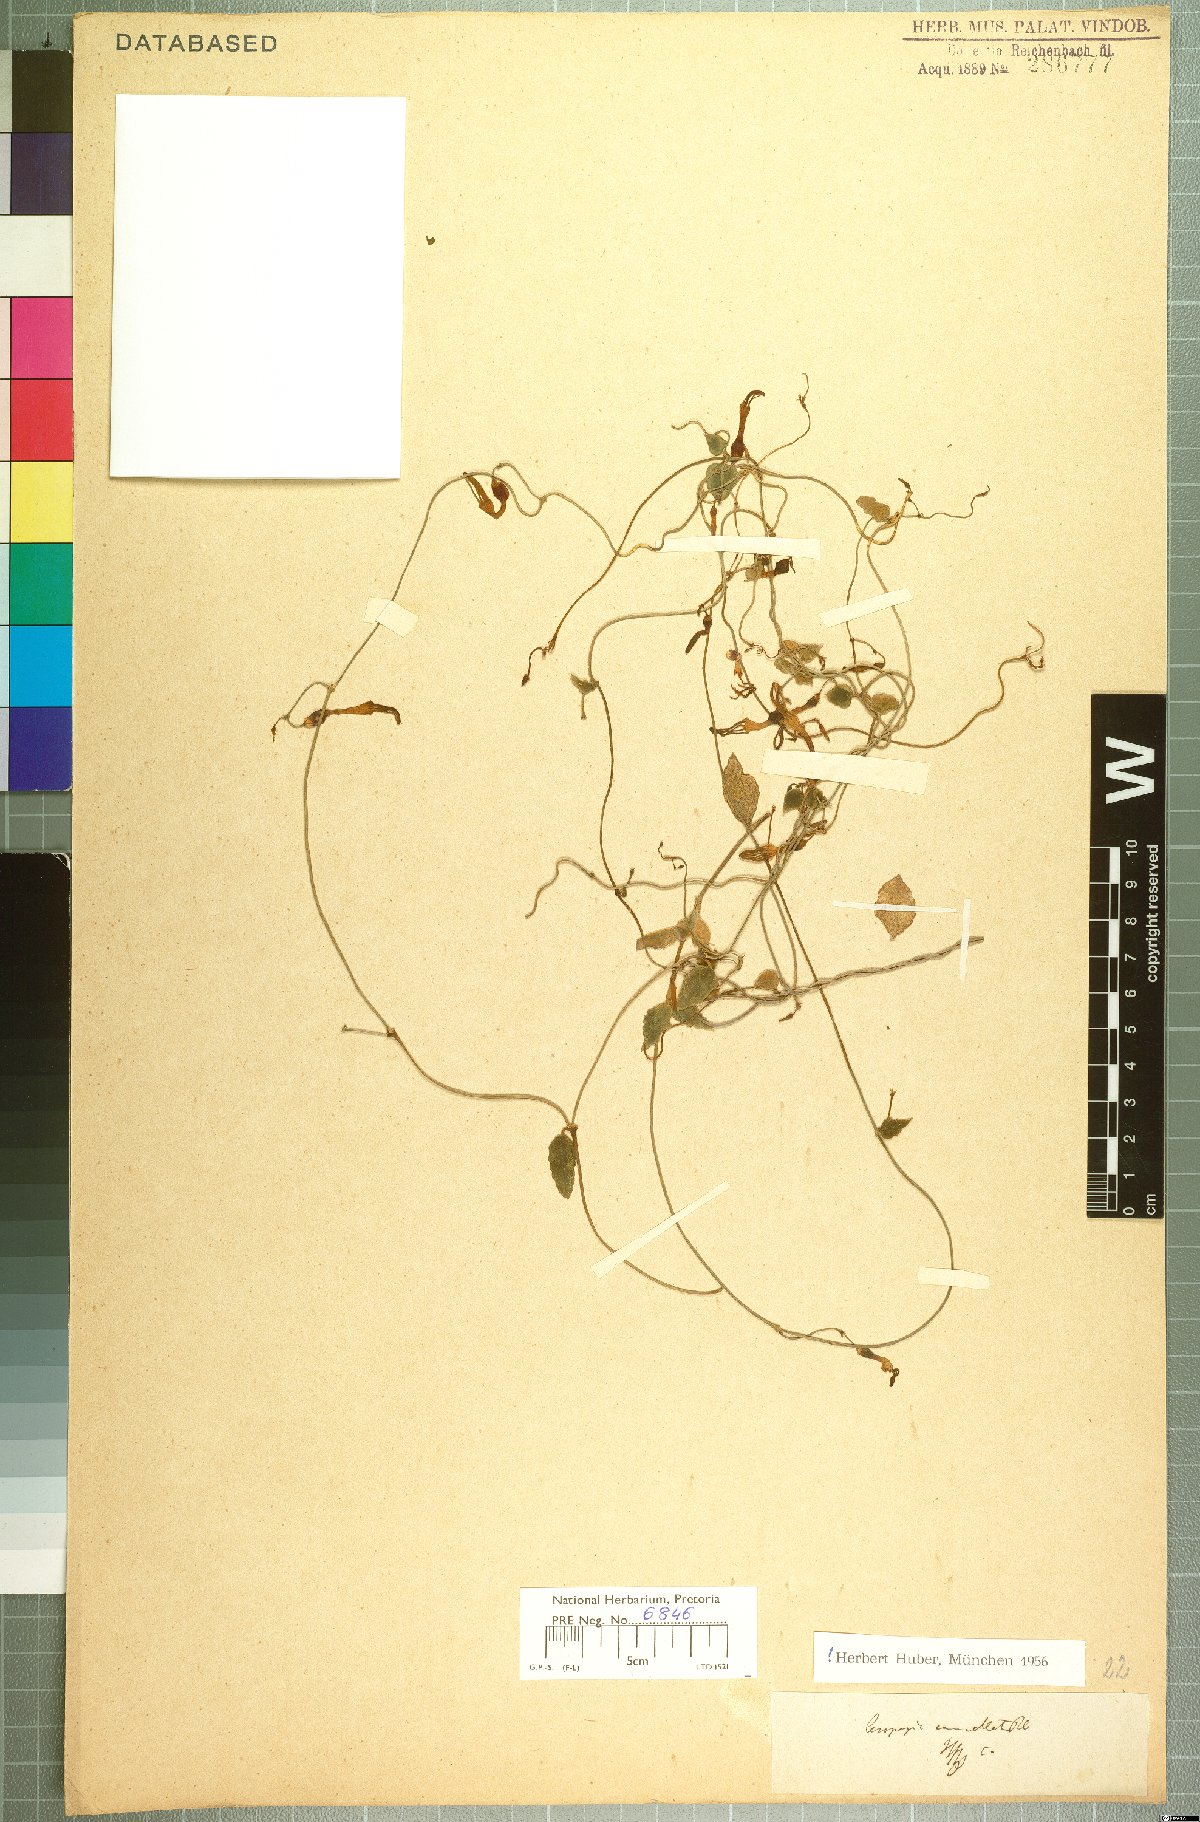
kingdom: Plantae
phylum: Tracheophyta
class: Magnoliopsida
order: Gentianales
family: Apocynaceae
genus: Ceropegia
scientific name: Ceropegia cancellata
